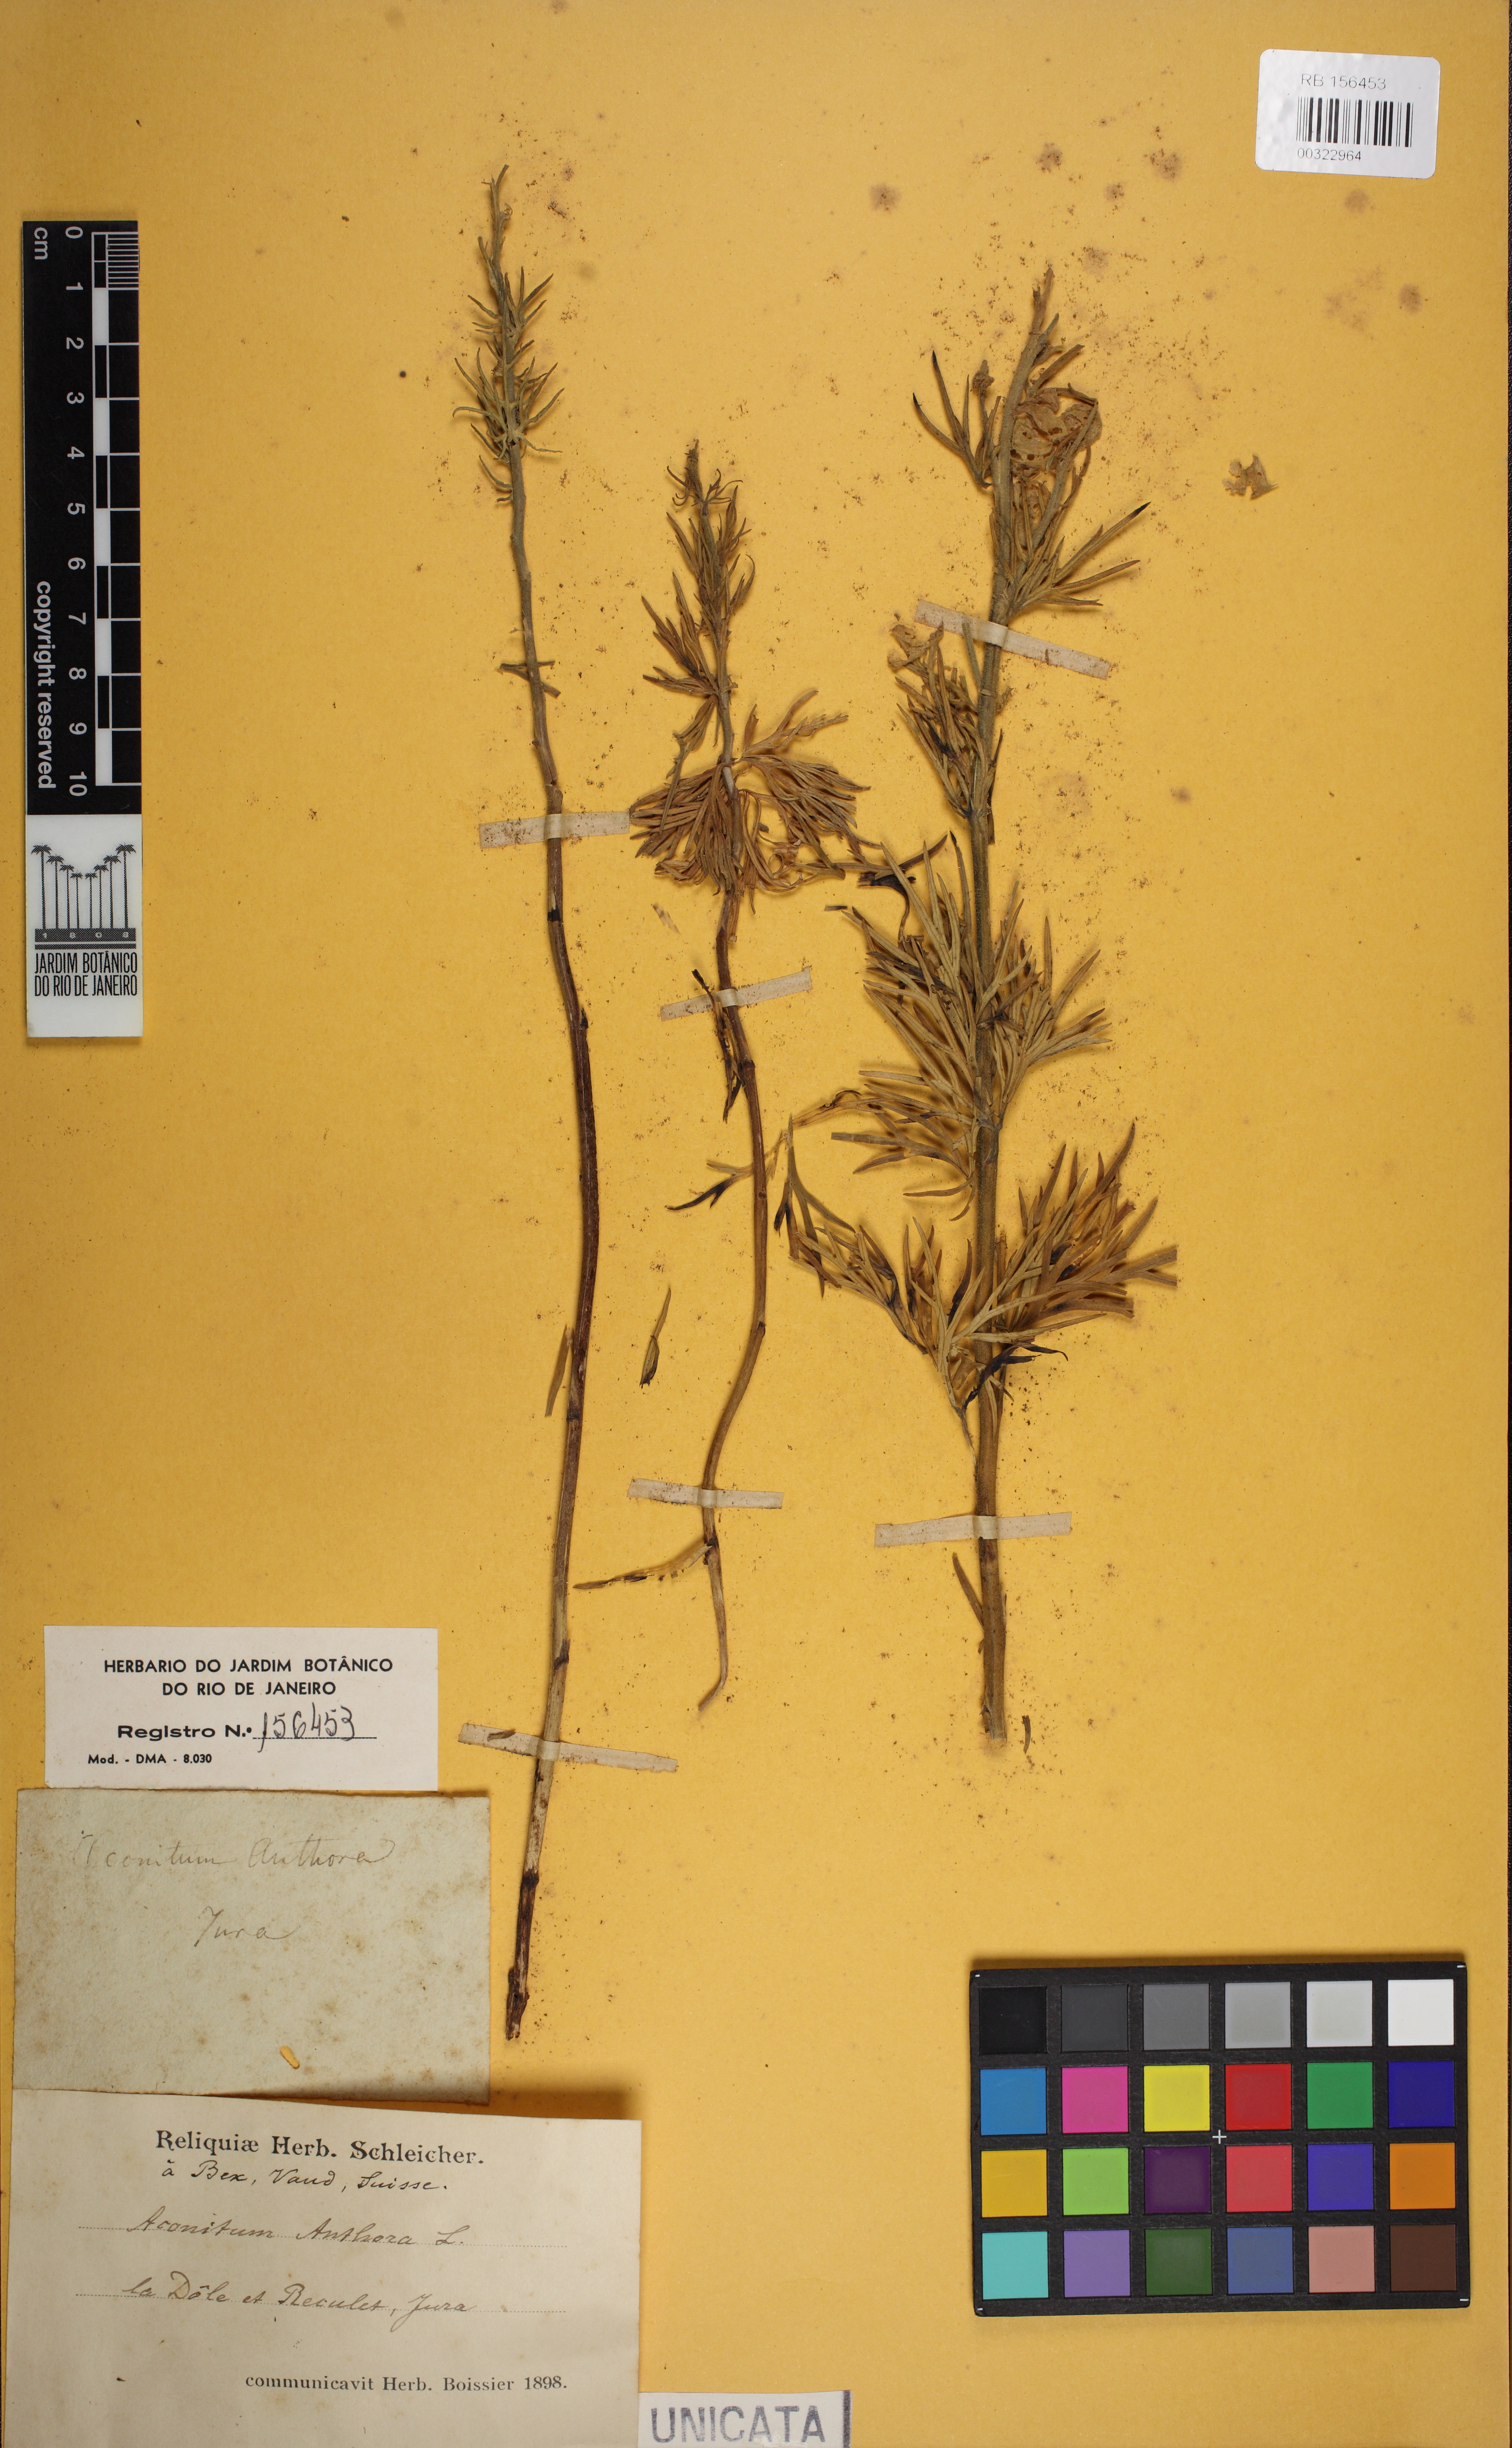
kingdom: Plantae
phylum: Tracheophyta
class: Magnoliopsida
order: Ranunculales
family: Ranunculaceae
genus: Aconitum
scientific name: Aconitum anthora
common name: Yellow monkshood
